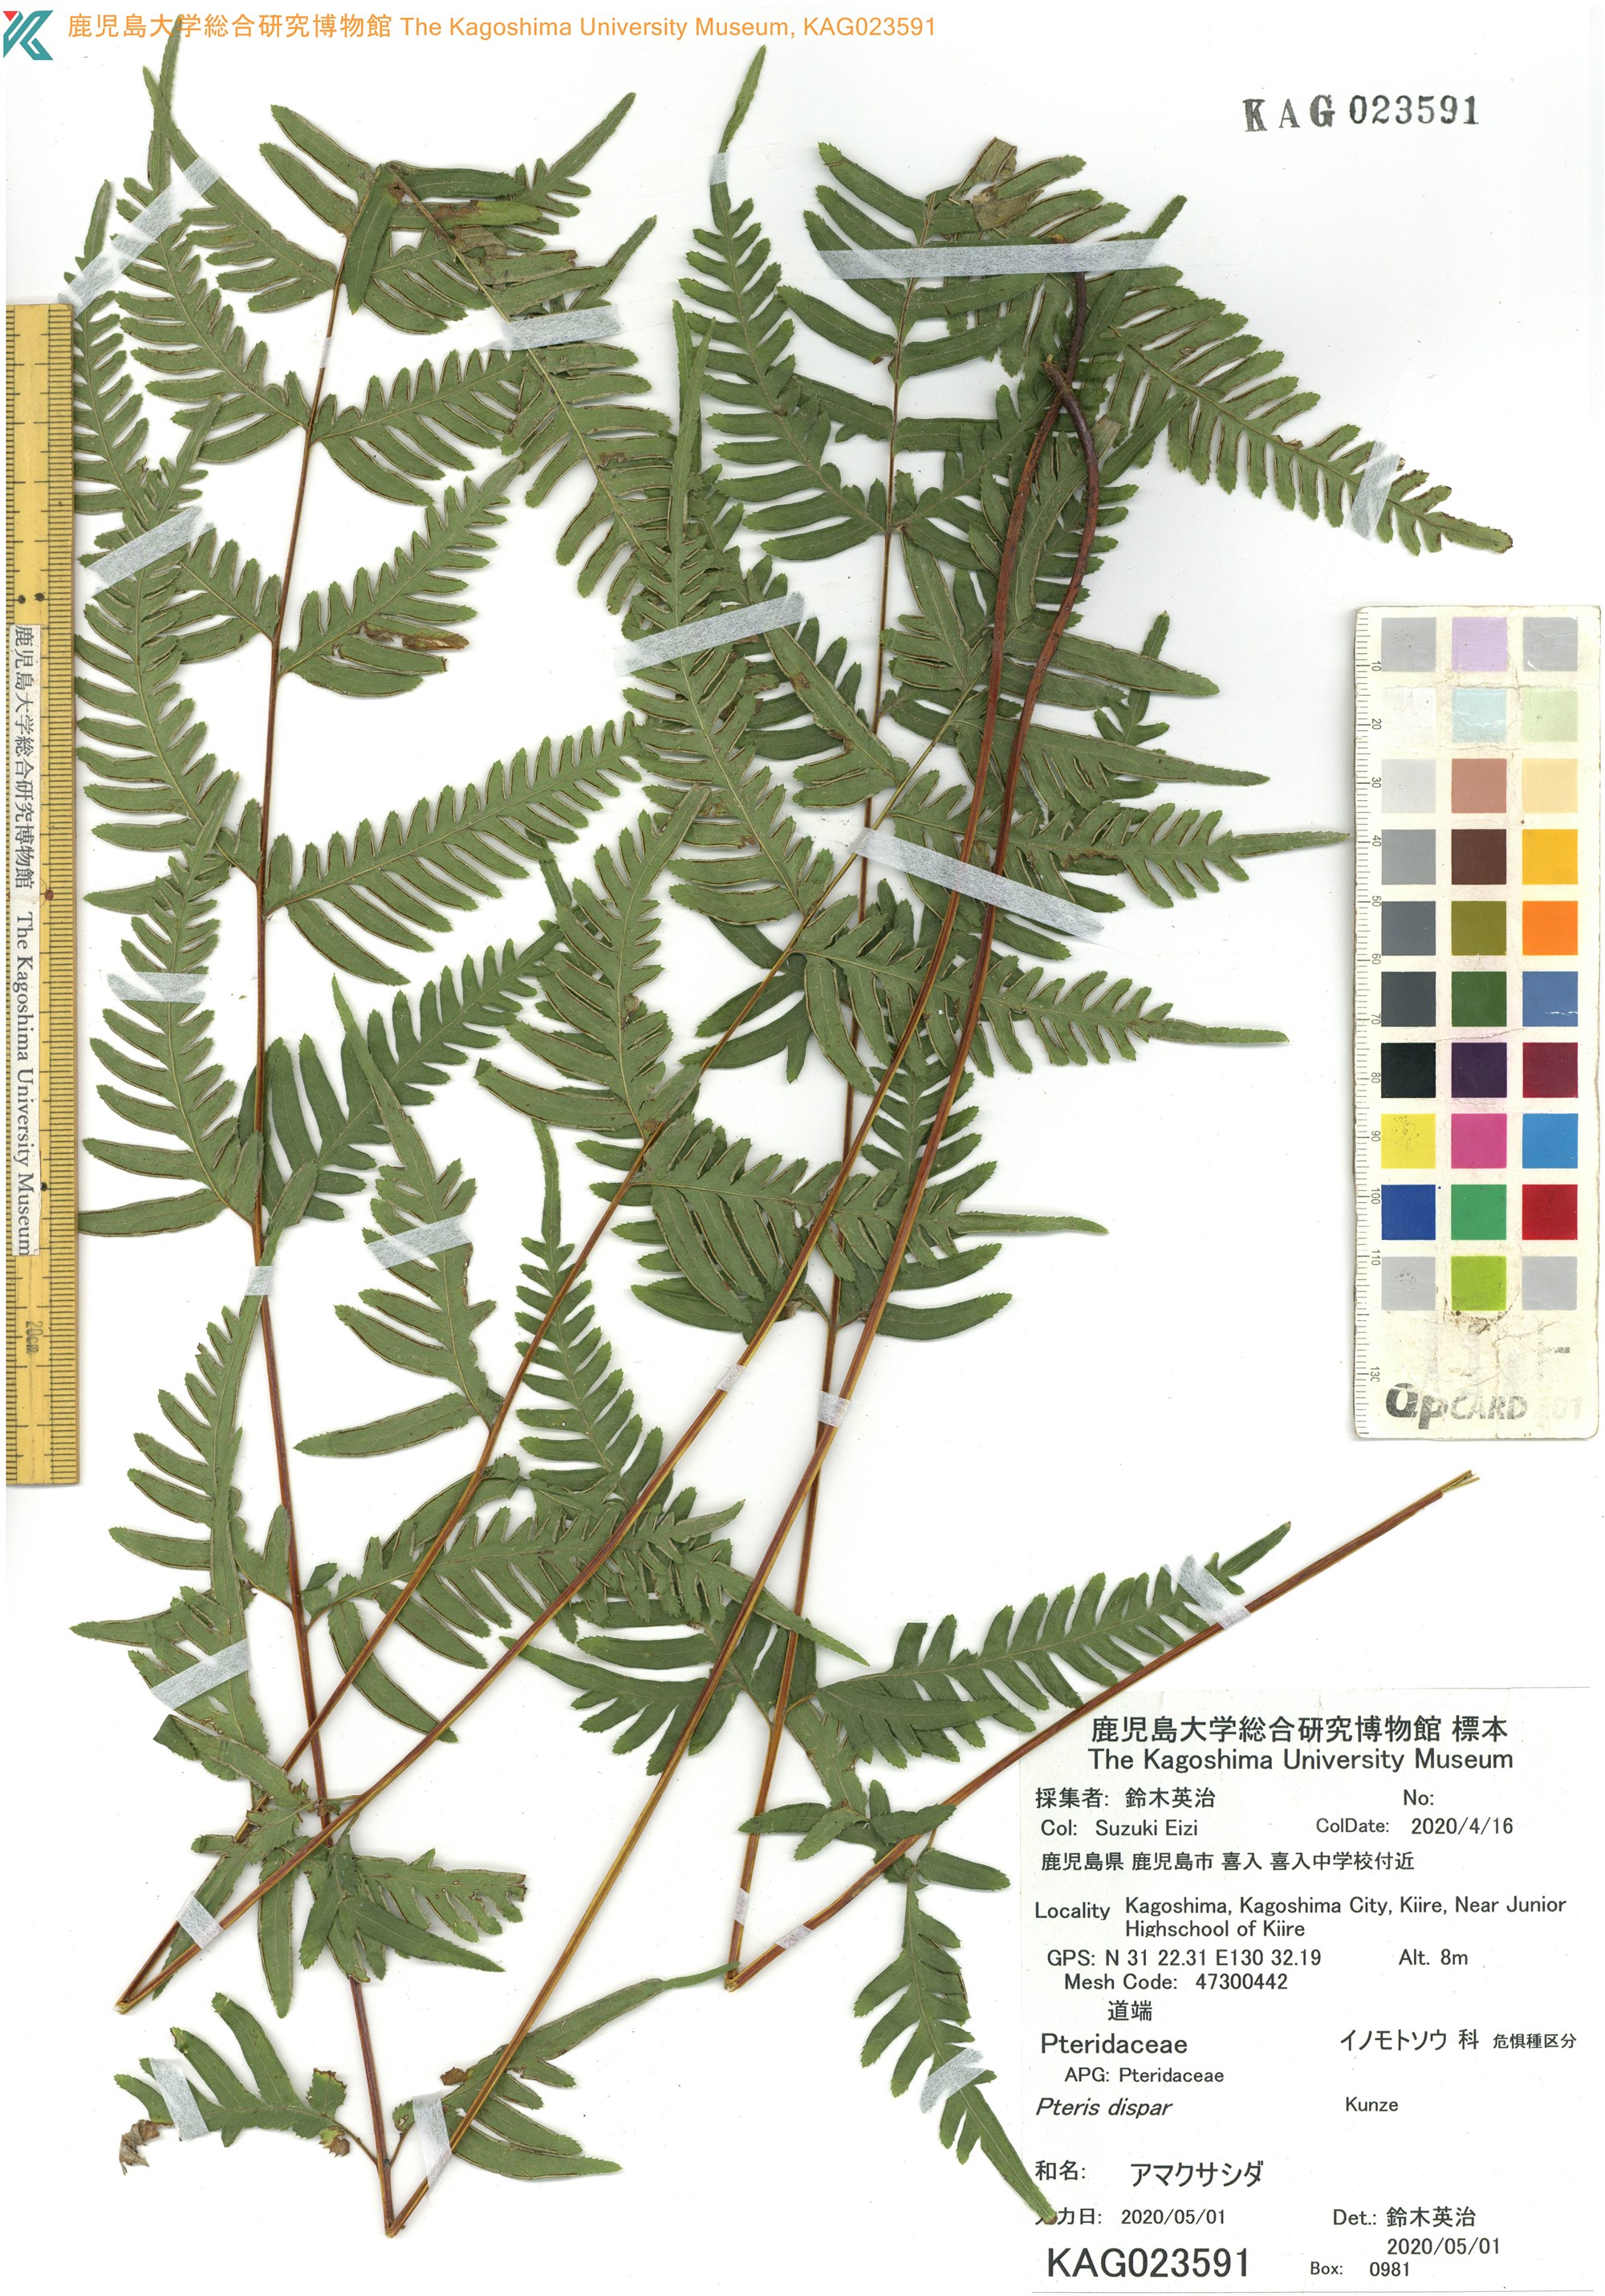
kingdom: Plantae
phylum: Tracheophyta
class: Polypodiopsida
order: Polypodiales
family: Pteridaceae
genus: Pteris
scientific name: Pteris dispar
